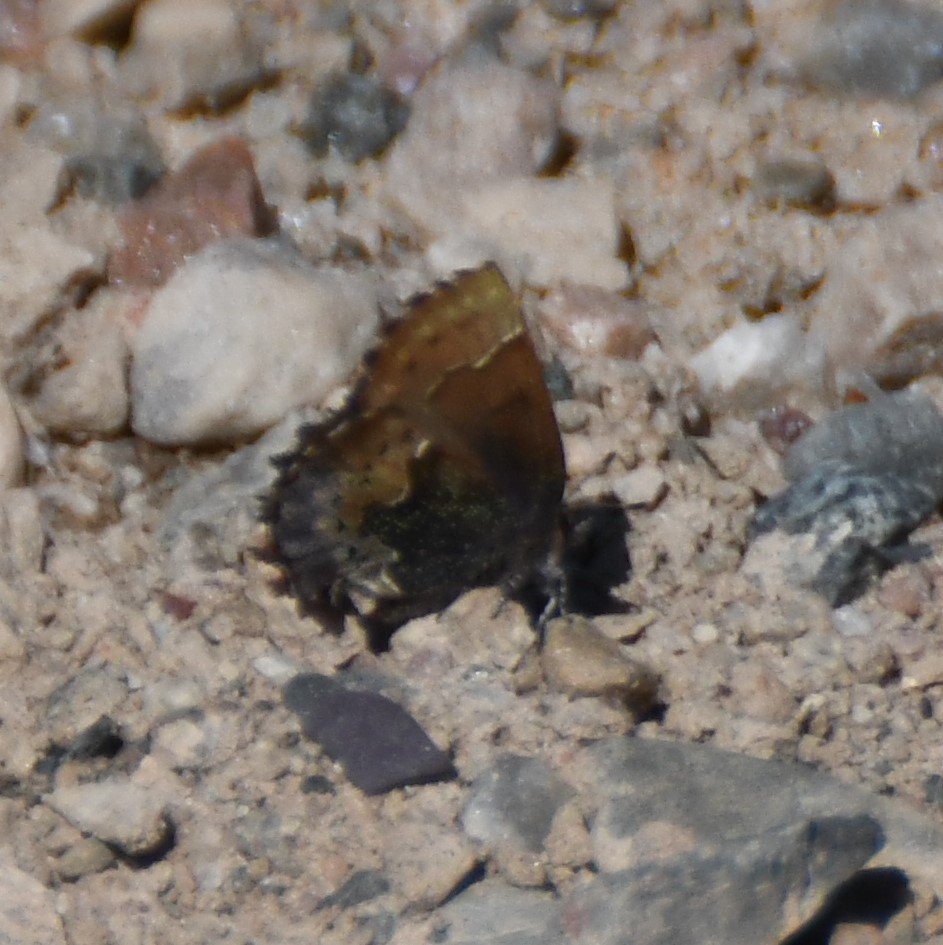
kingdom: Animalia
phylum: Arthropoda
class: Insecta
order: Lepidoptera
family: Lycaenidae
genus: Incisalia
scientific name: Incisalia henrici
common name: Henry's Elfin
